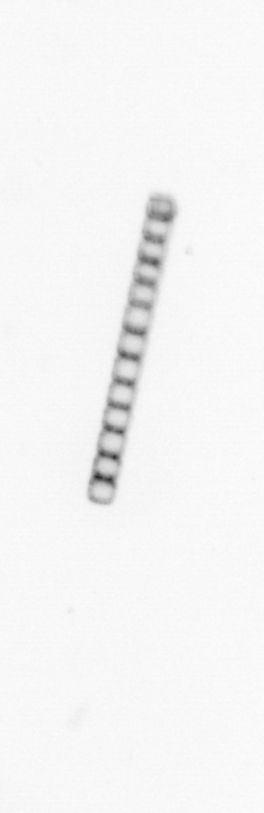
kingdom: Chromista
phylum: Ochrophyta
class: Bacillariophyceae
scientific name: Bacillariophyceae
